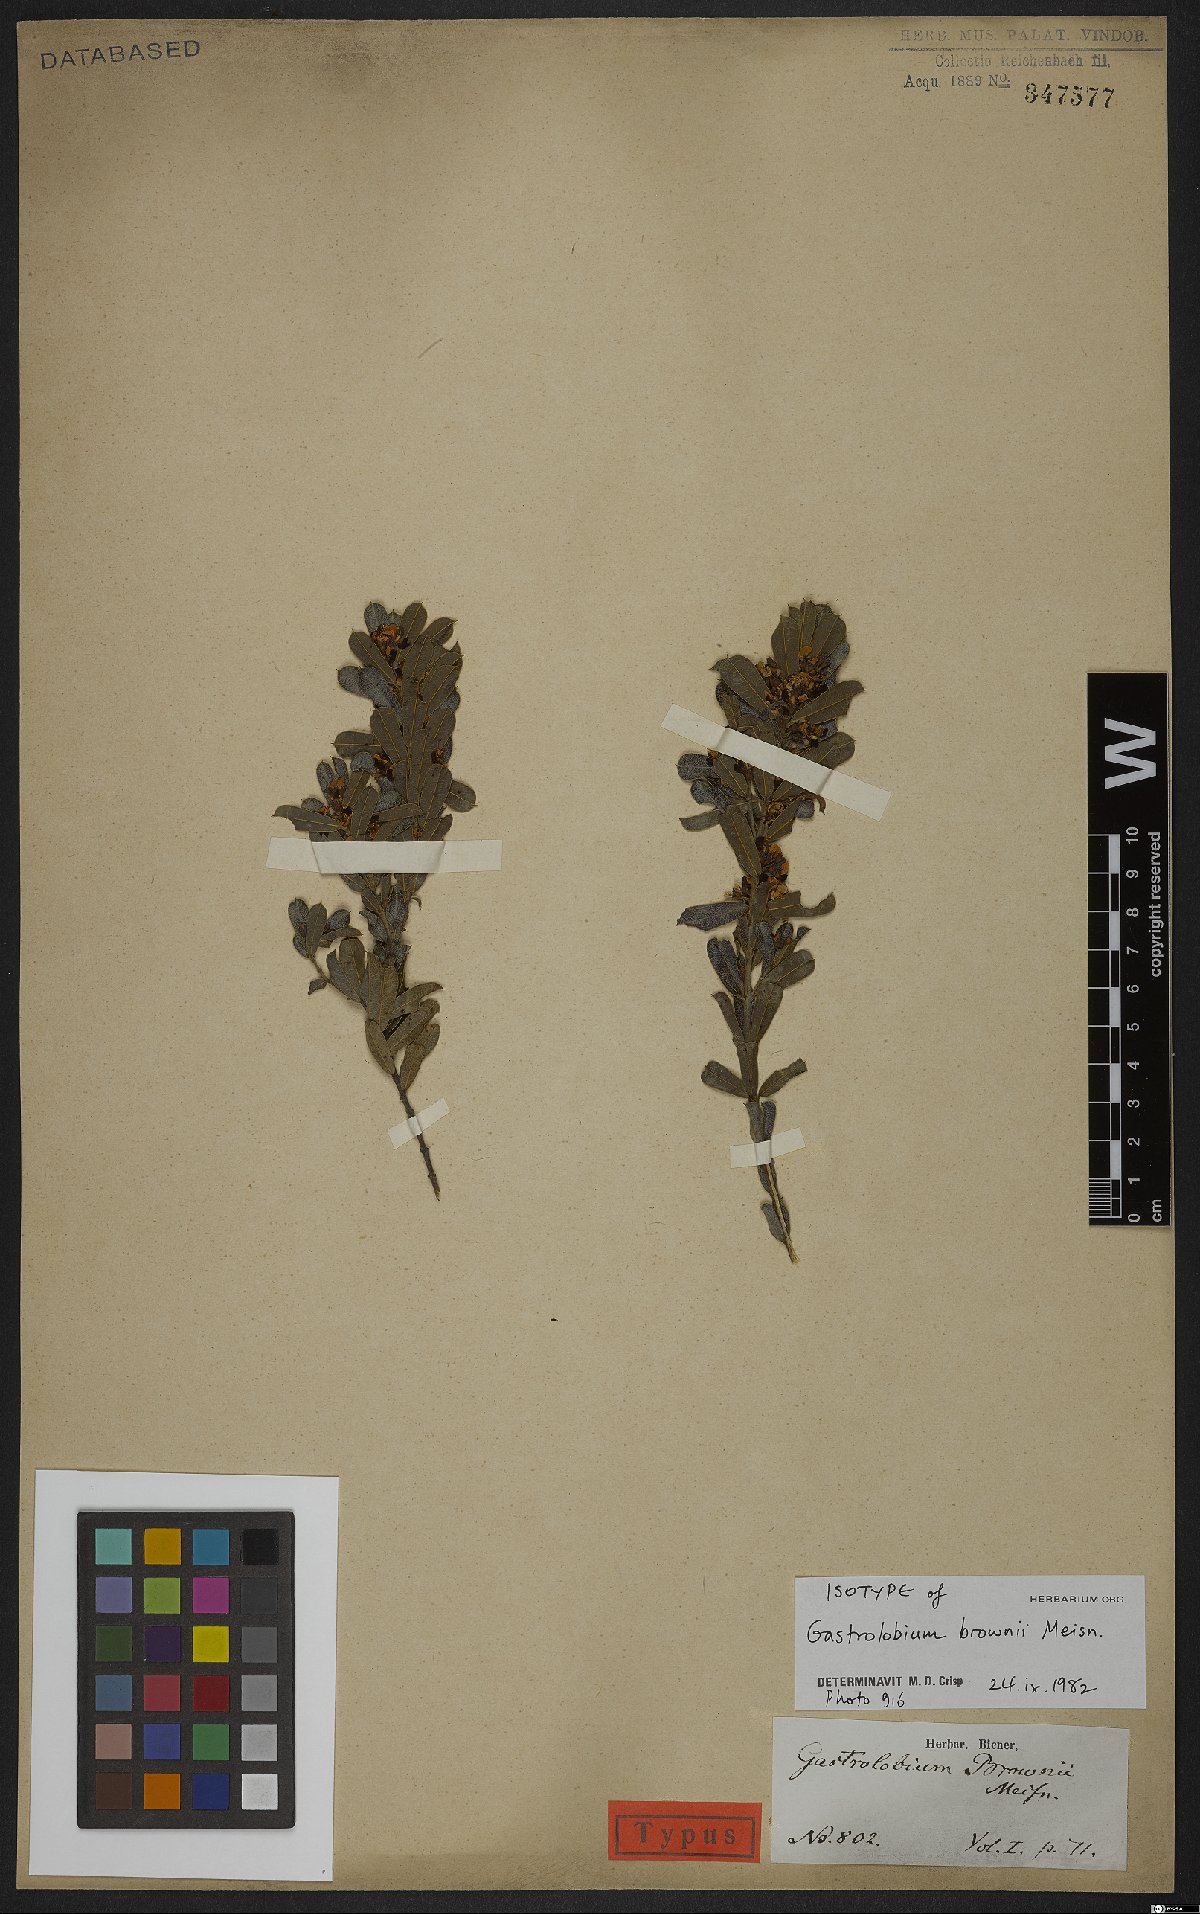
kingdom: Plantae
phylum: Tracheophyta
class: Magnoliopsida
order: Fabales
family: Fabaceae
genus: Gastrolobium
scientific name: Gastrolobium brownii
